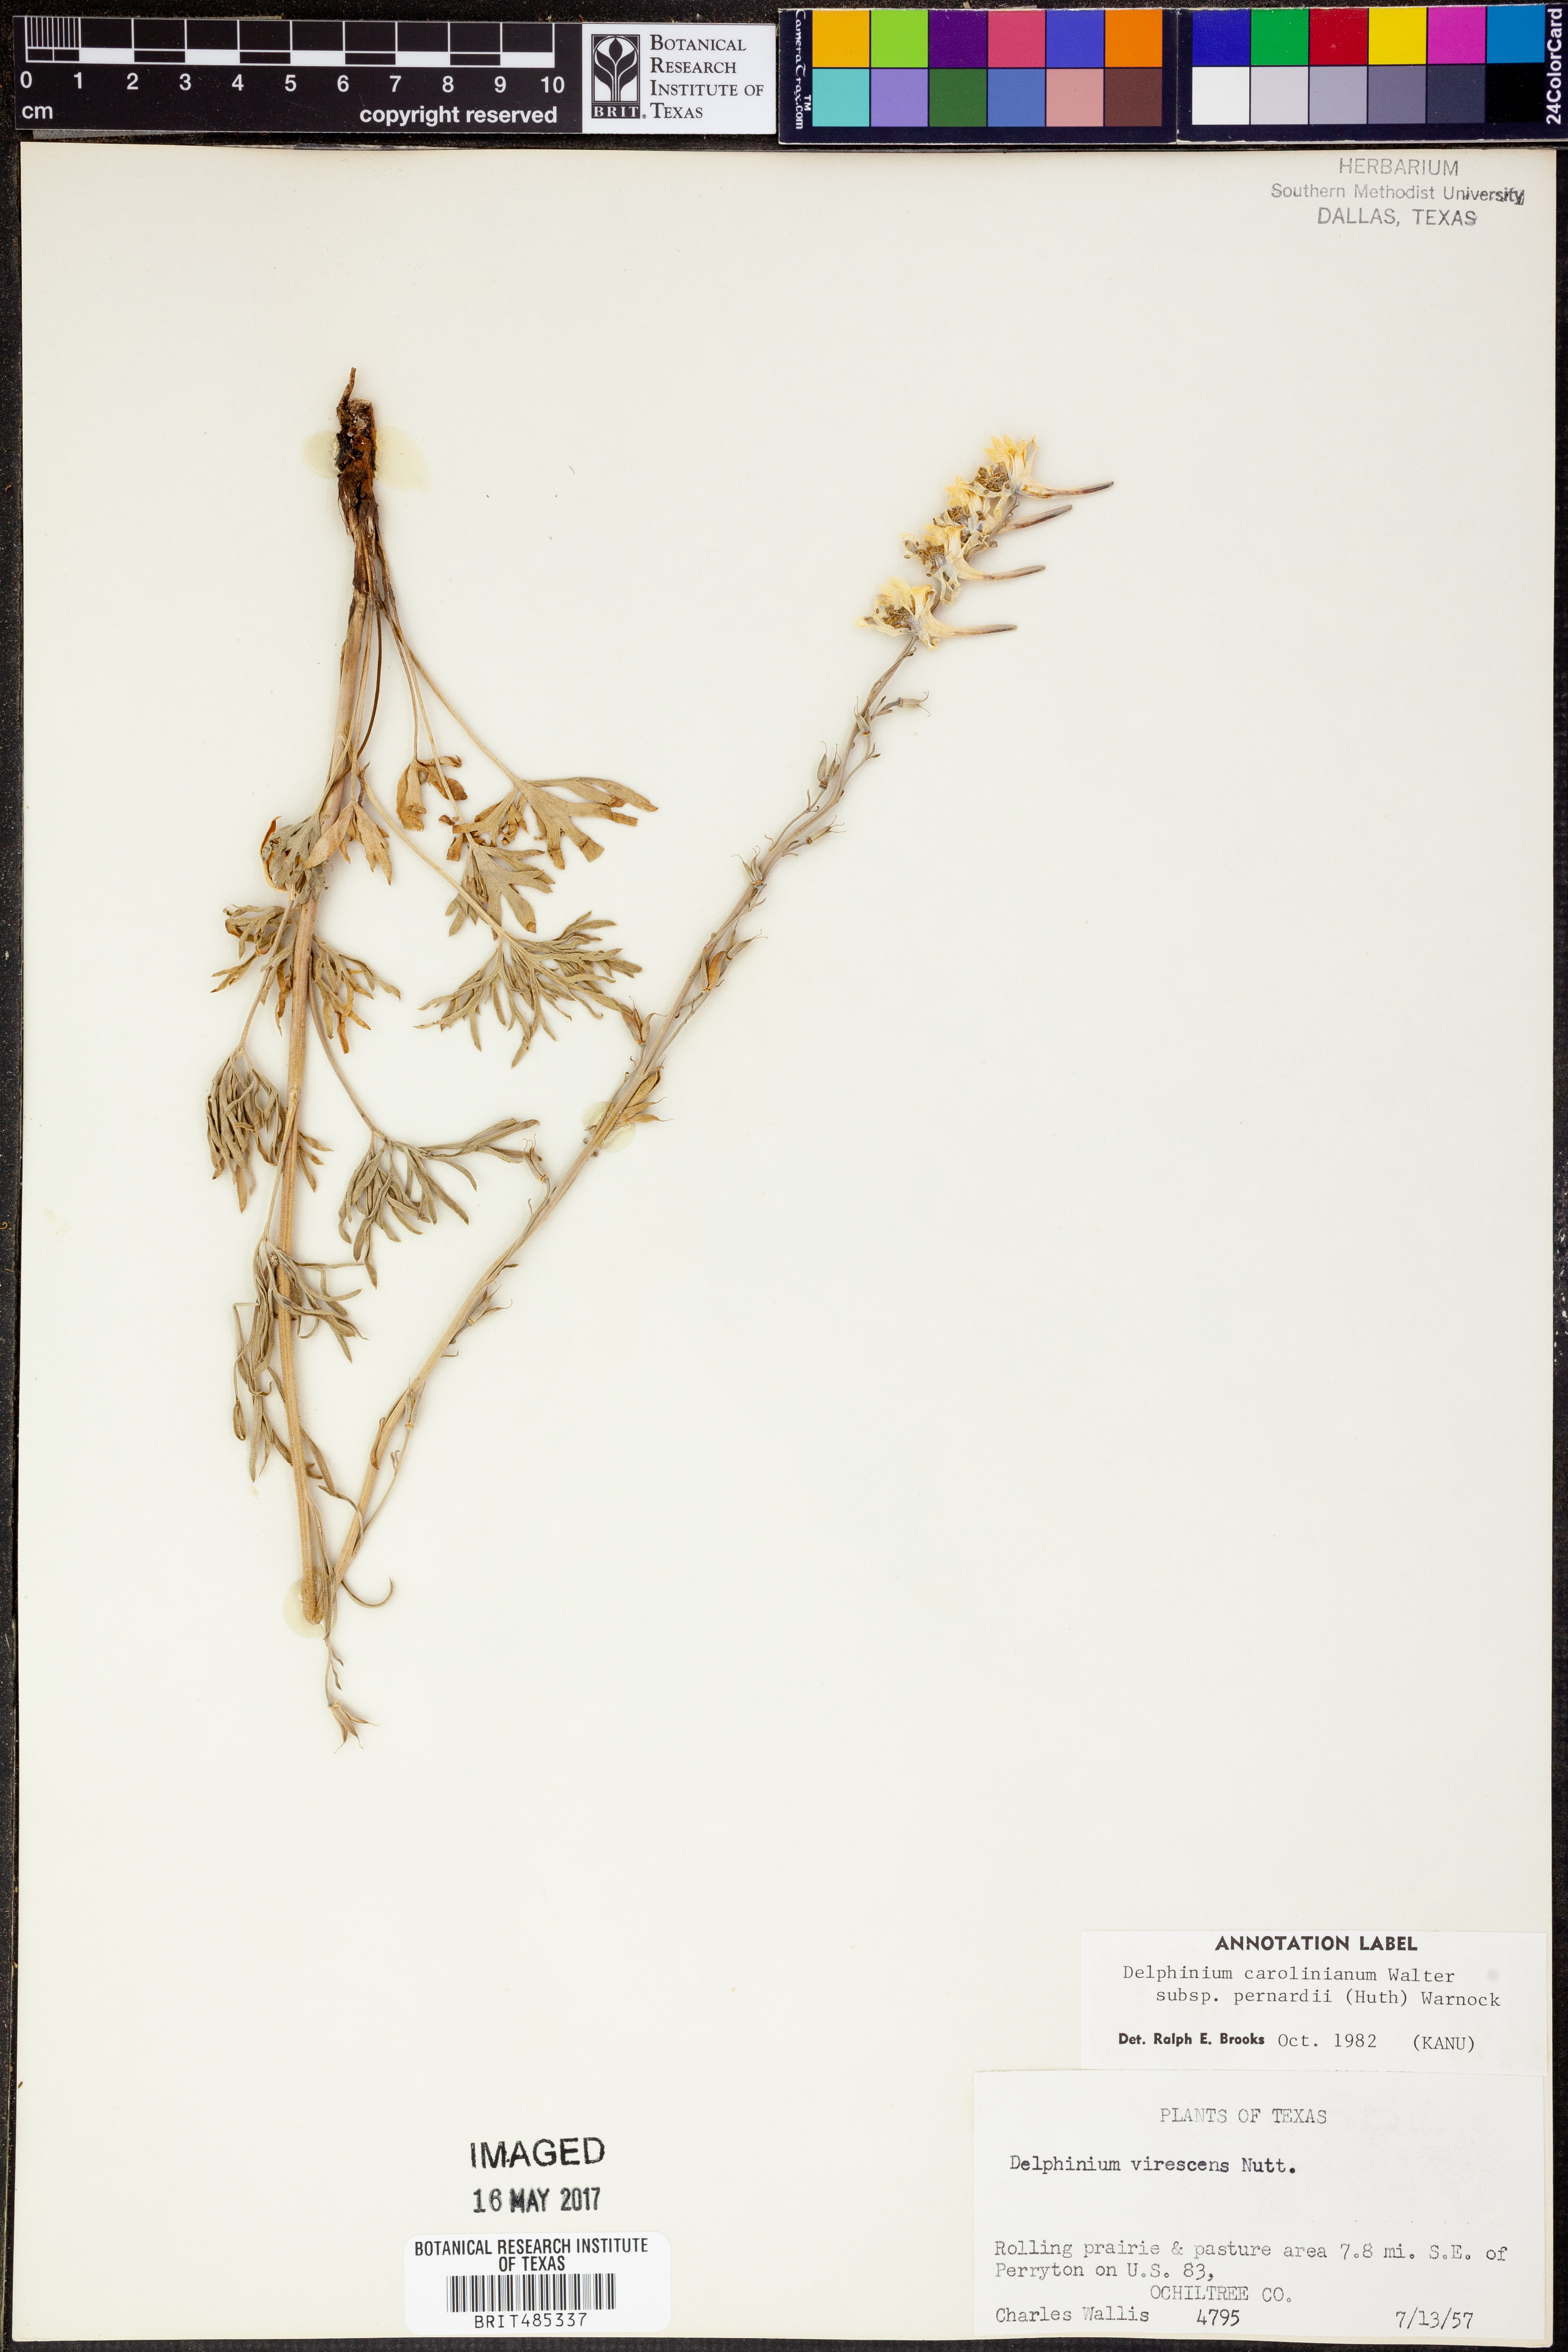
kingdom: Plantae
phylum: Tracheophyta
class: Magnoliopsida
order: Ranunculales
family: Ranunculaceae
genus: Delphinium
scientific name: Delphinium carolinianum
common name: Carolina larkspur
